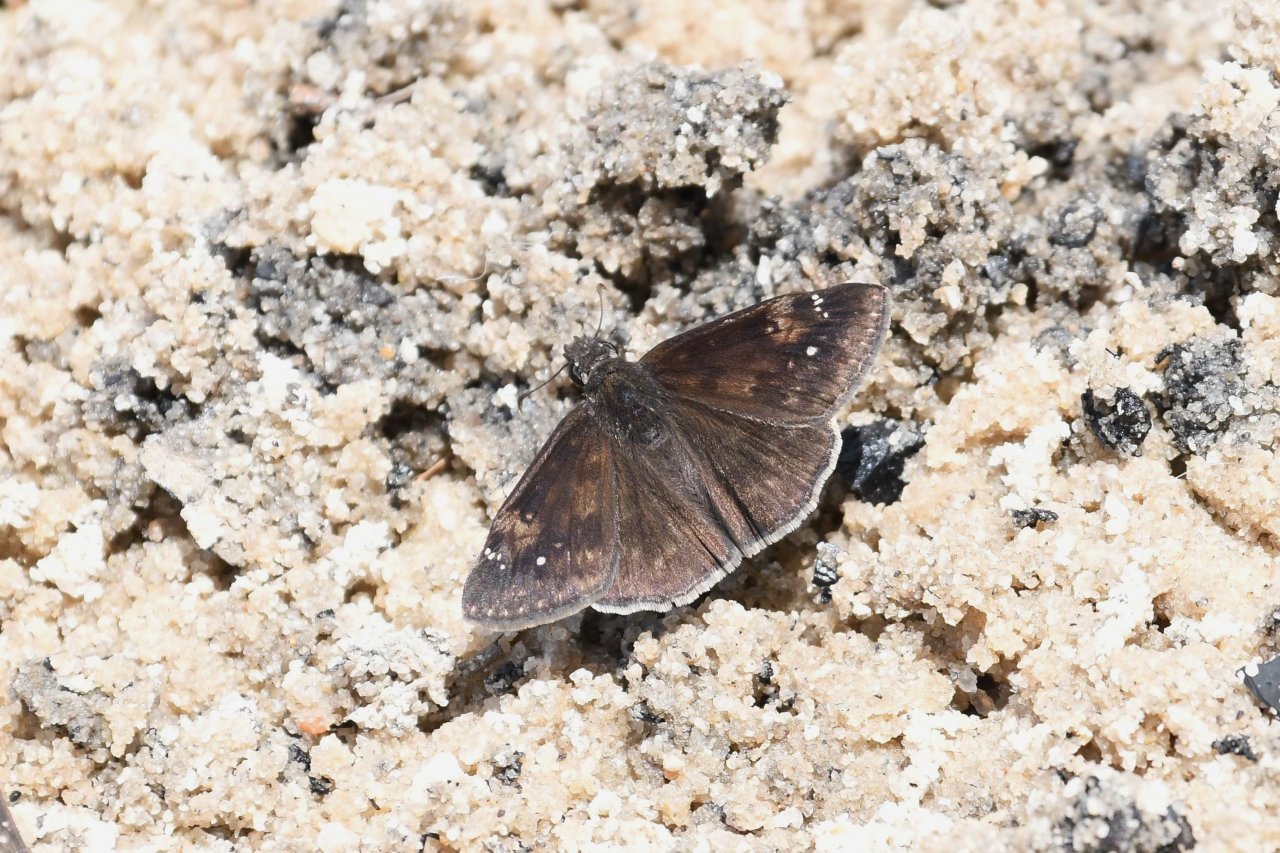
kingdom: Animalia
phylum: Arthropoda
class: Insecta
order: Lepidoptera
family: Hesperiidae
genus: Erynnis
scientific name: Erynnis zarucco
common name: Zarucco Duskywing
